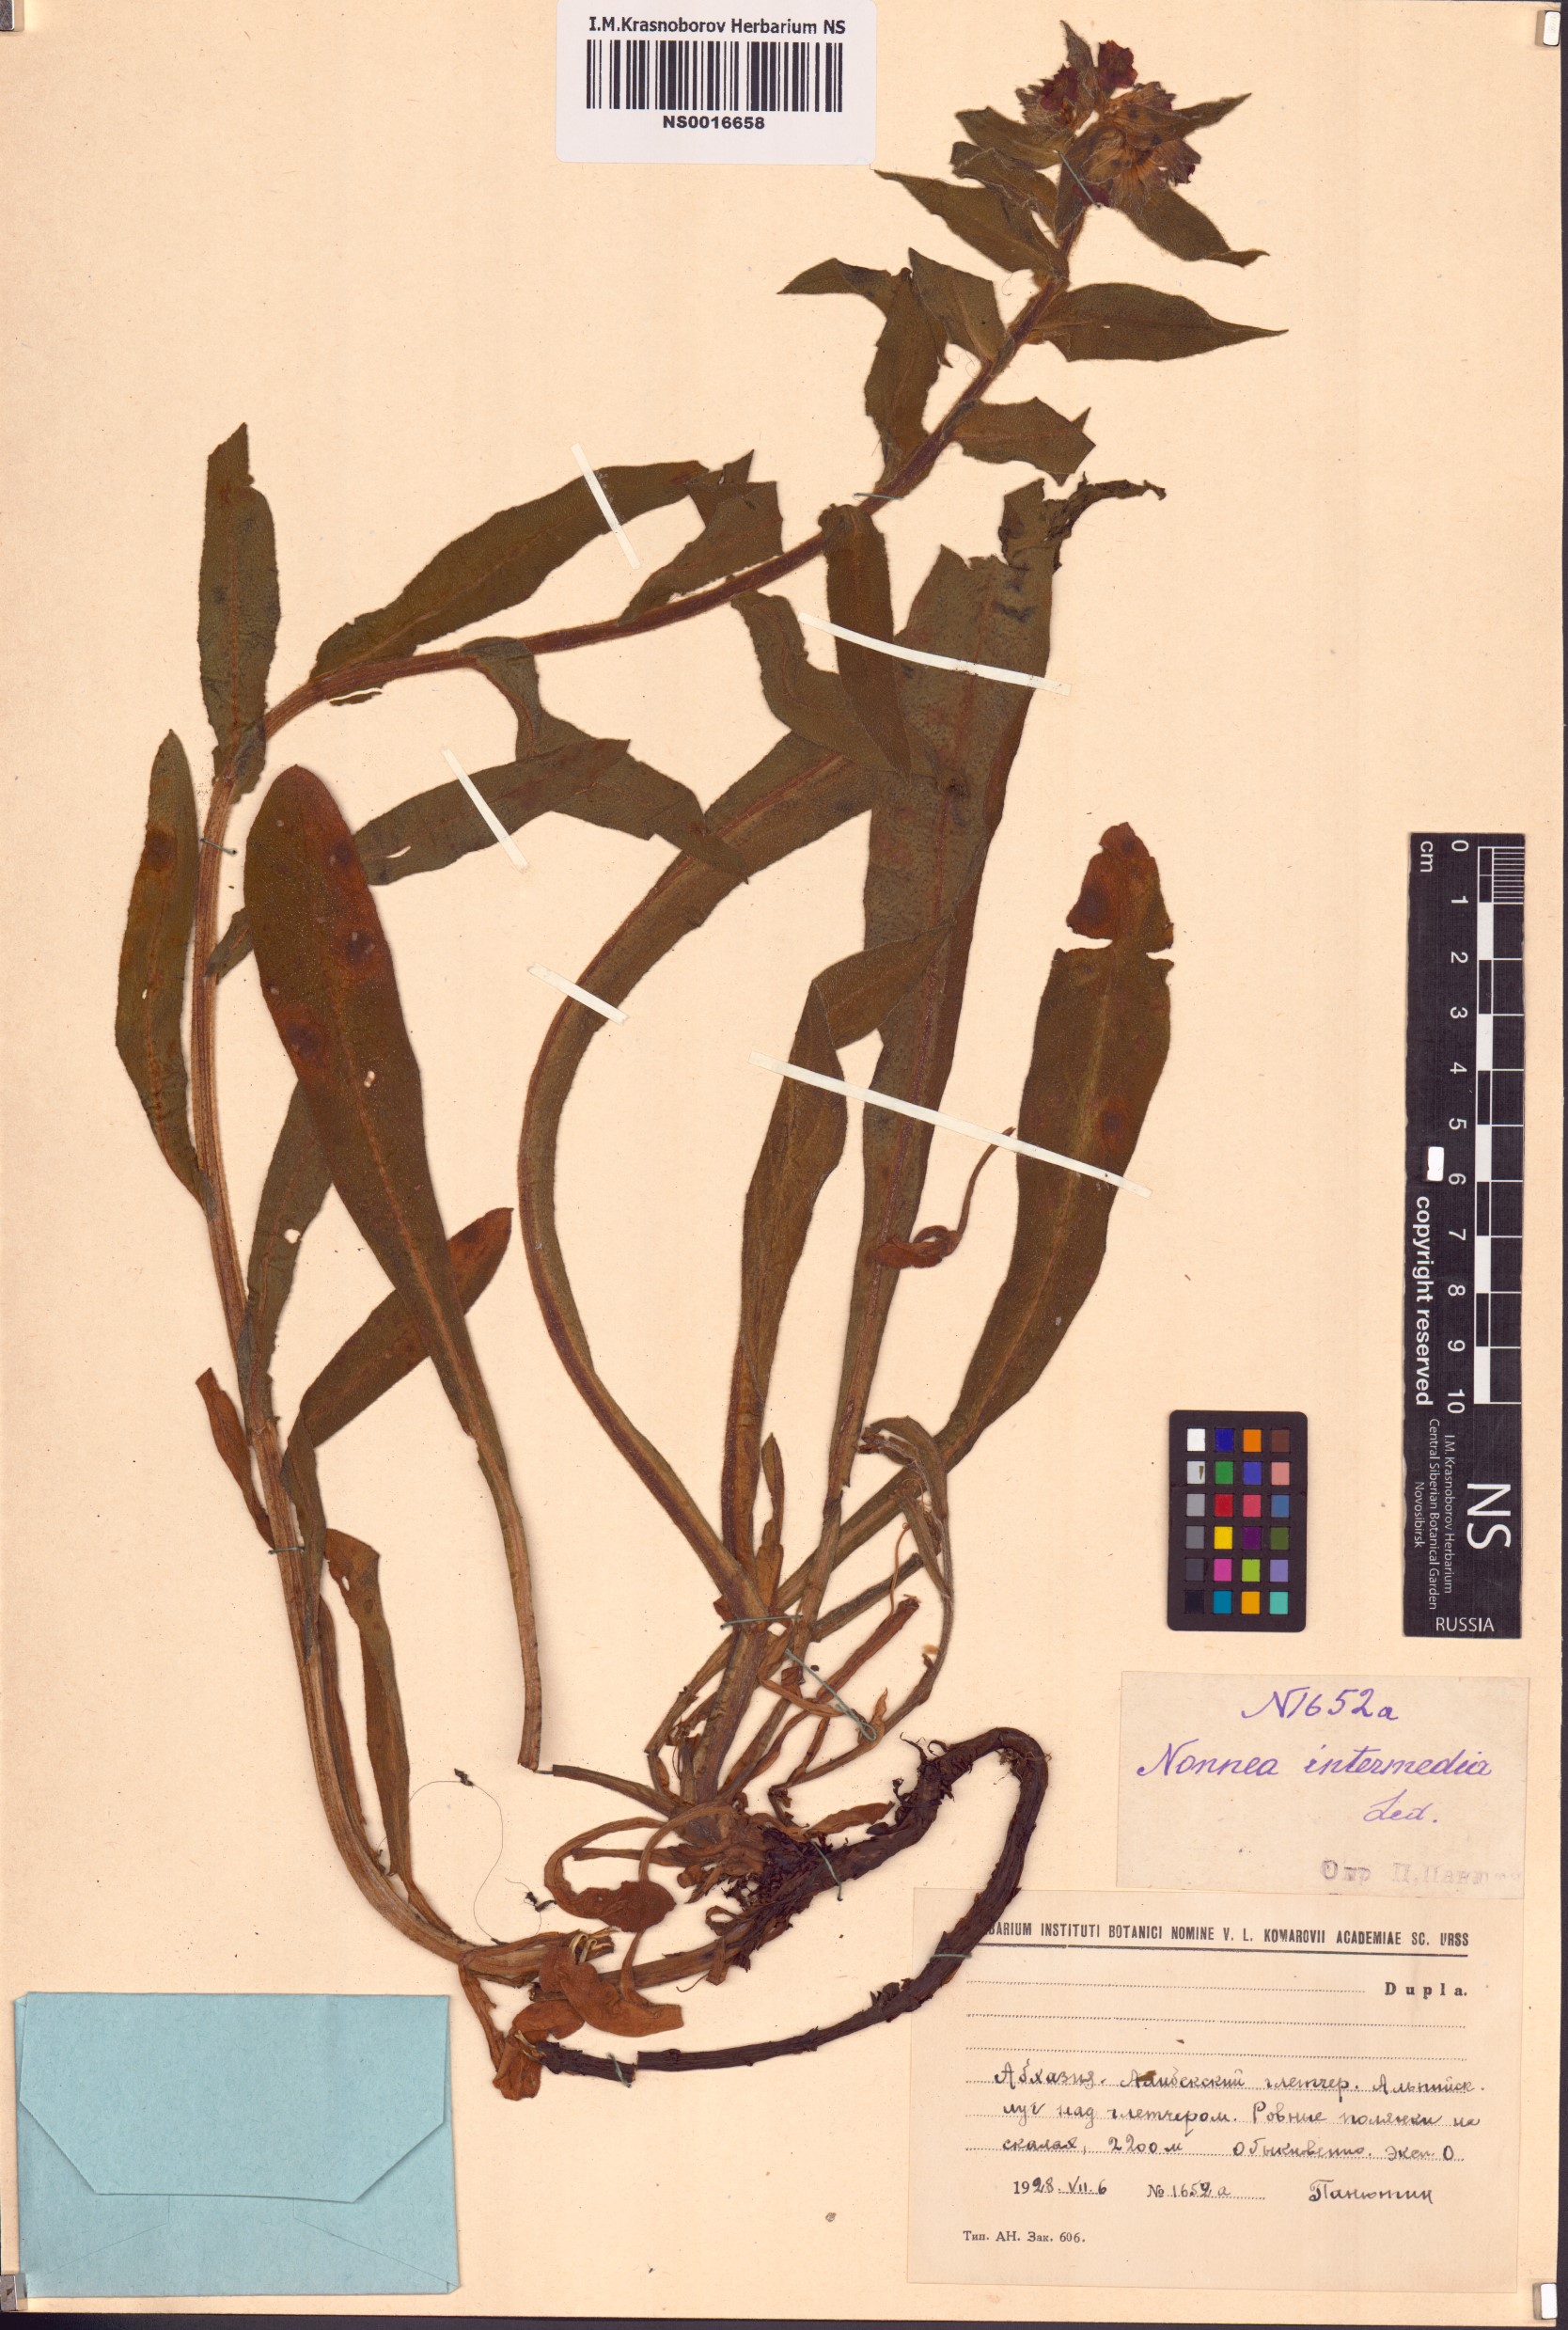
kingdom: Plantae
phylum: Tracheophyta
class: Magnoliopsida
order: Boraginales
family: Boraginaceae
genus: Nonea
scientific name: Nonea intermedia
